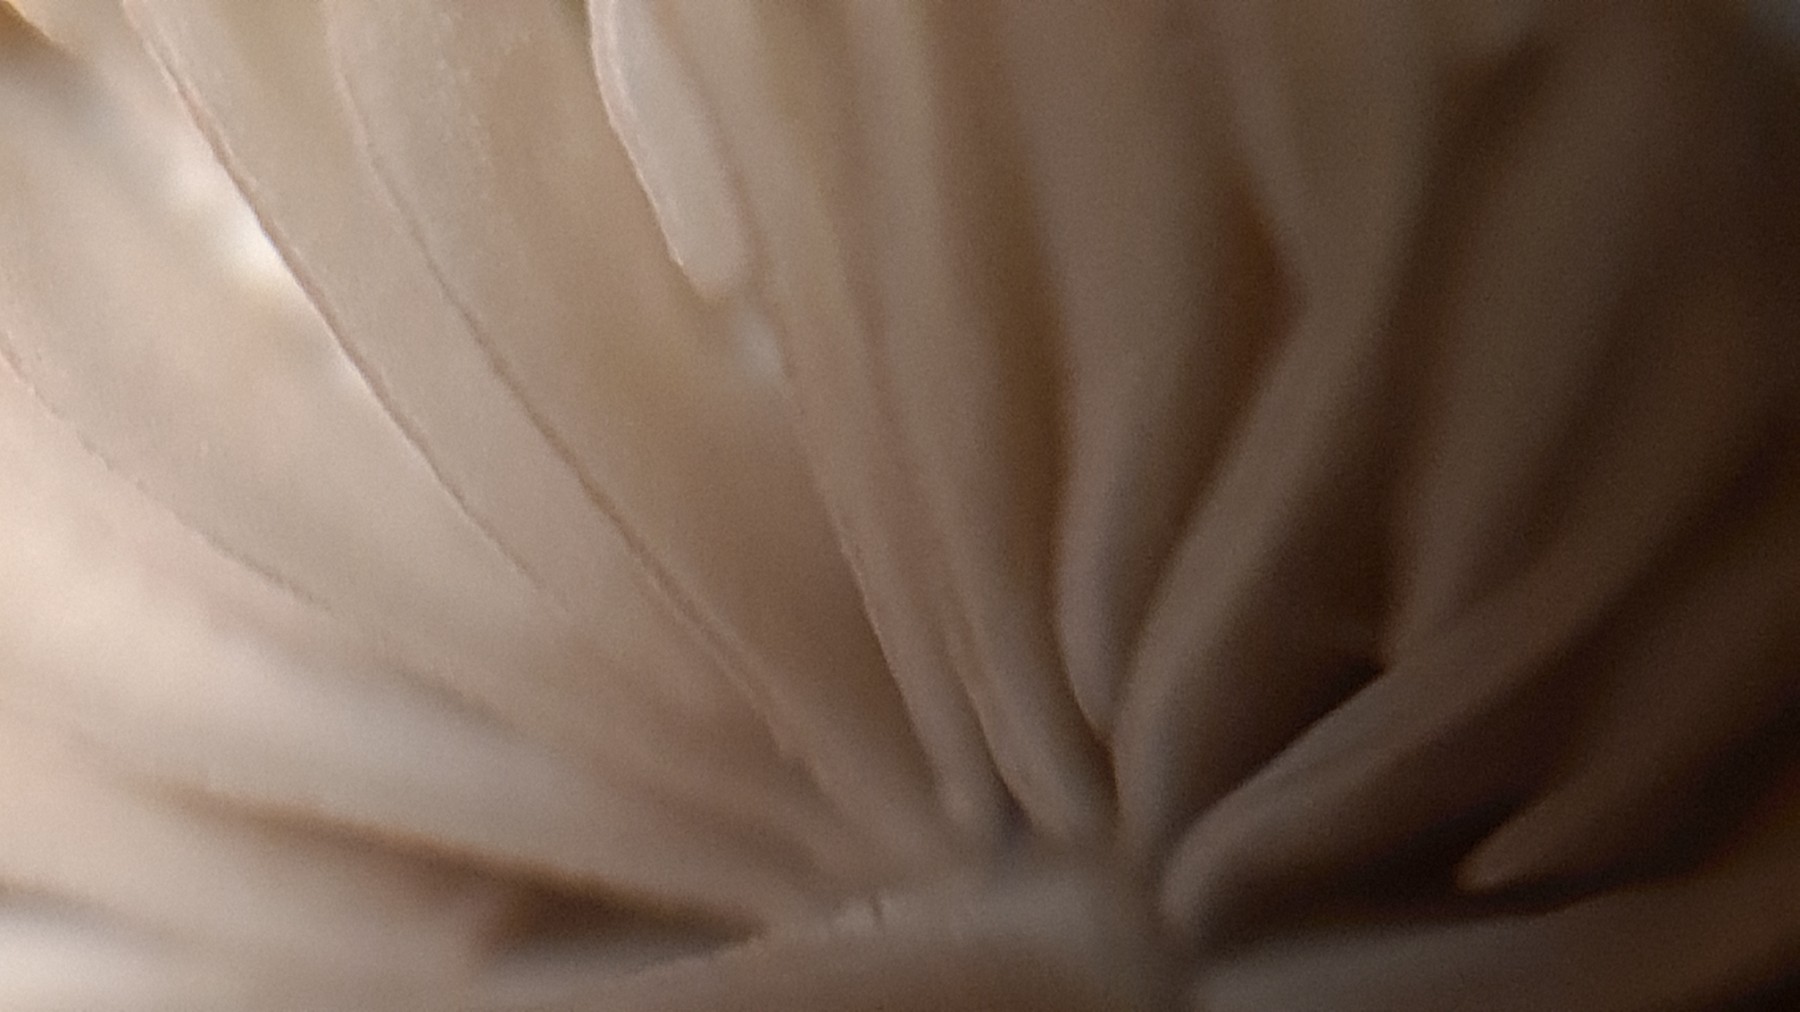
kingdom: Fungi
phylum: Basidiomycota
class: Agaricomycetes
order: Agaricales
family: Mycenaceae
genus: Mycena
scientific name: Mycena olivaceomarginata
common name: brunægget huesvamp
